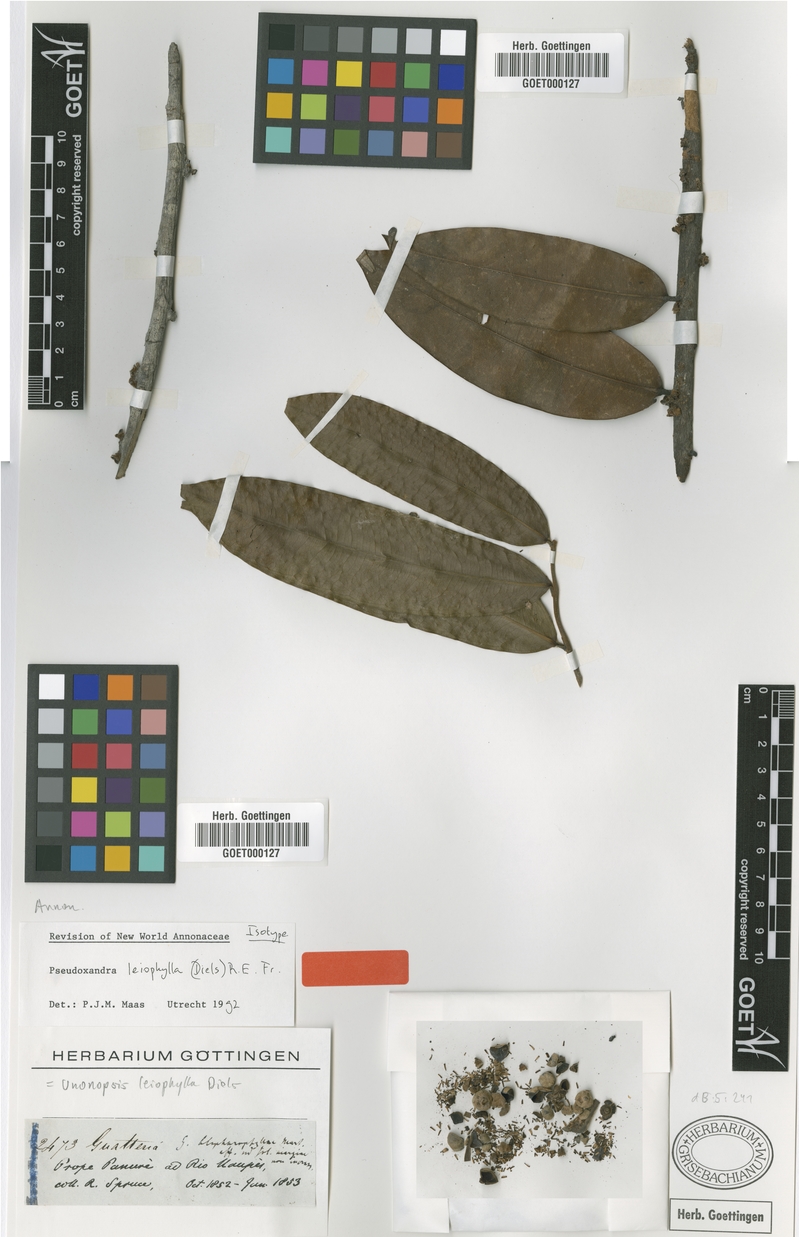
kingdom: Plantae
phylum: Tracheophyta
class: Magnoliopsida
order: Magnoliales
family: Annonaceae
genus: Pseudoxandra
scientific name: Pseudoxandra leiophylla
